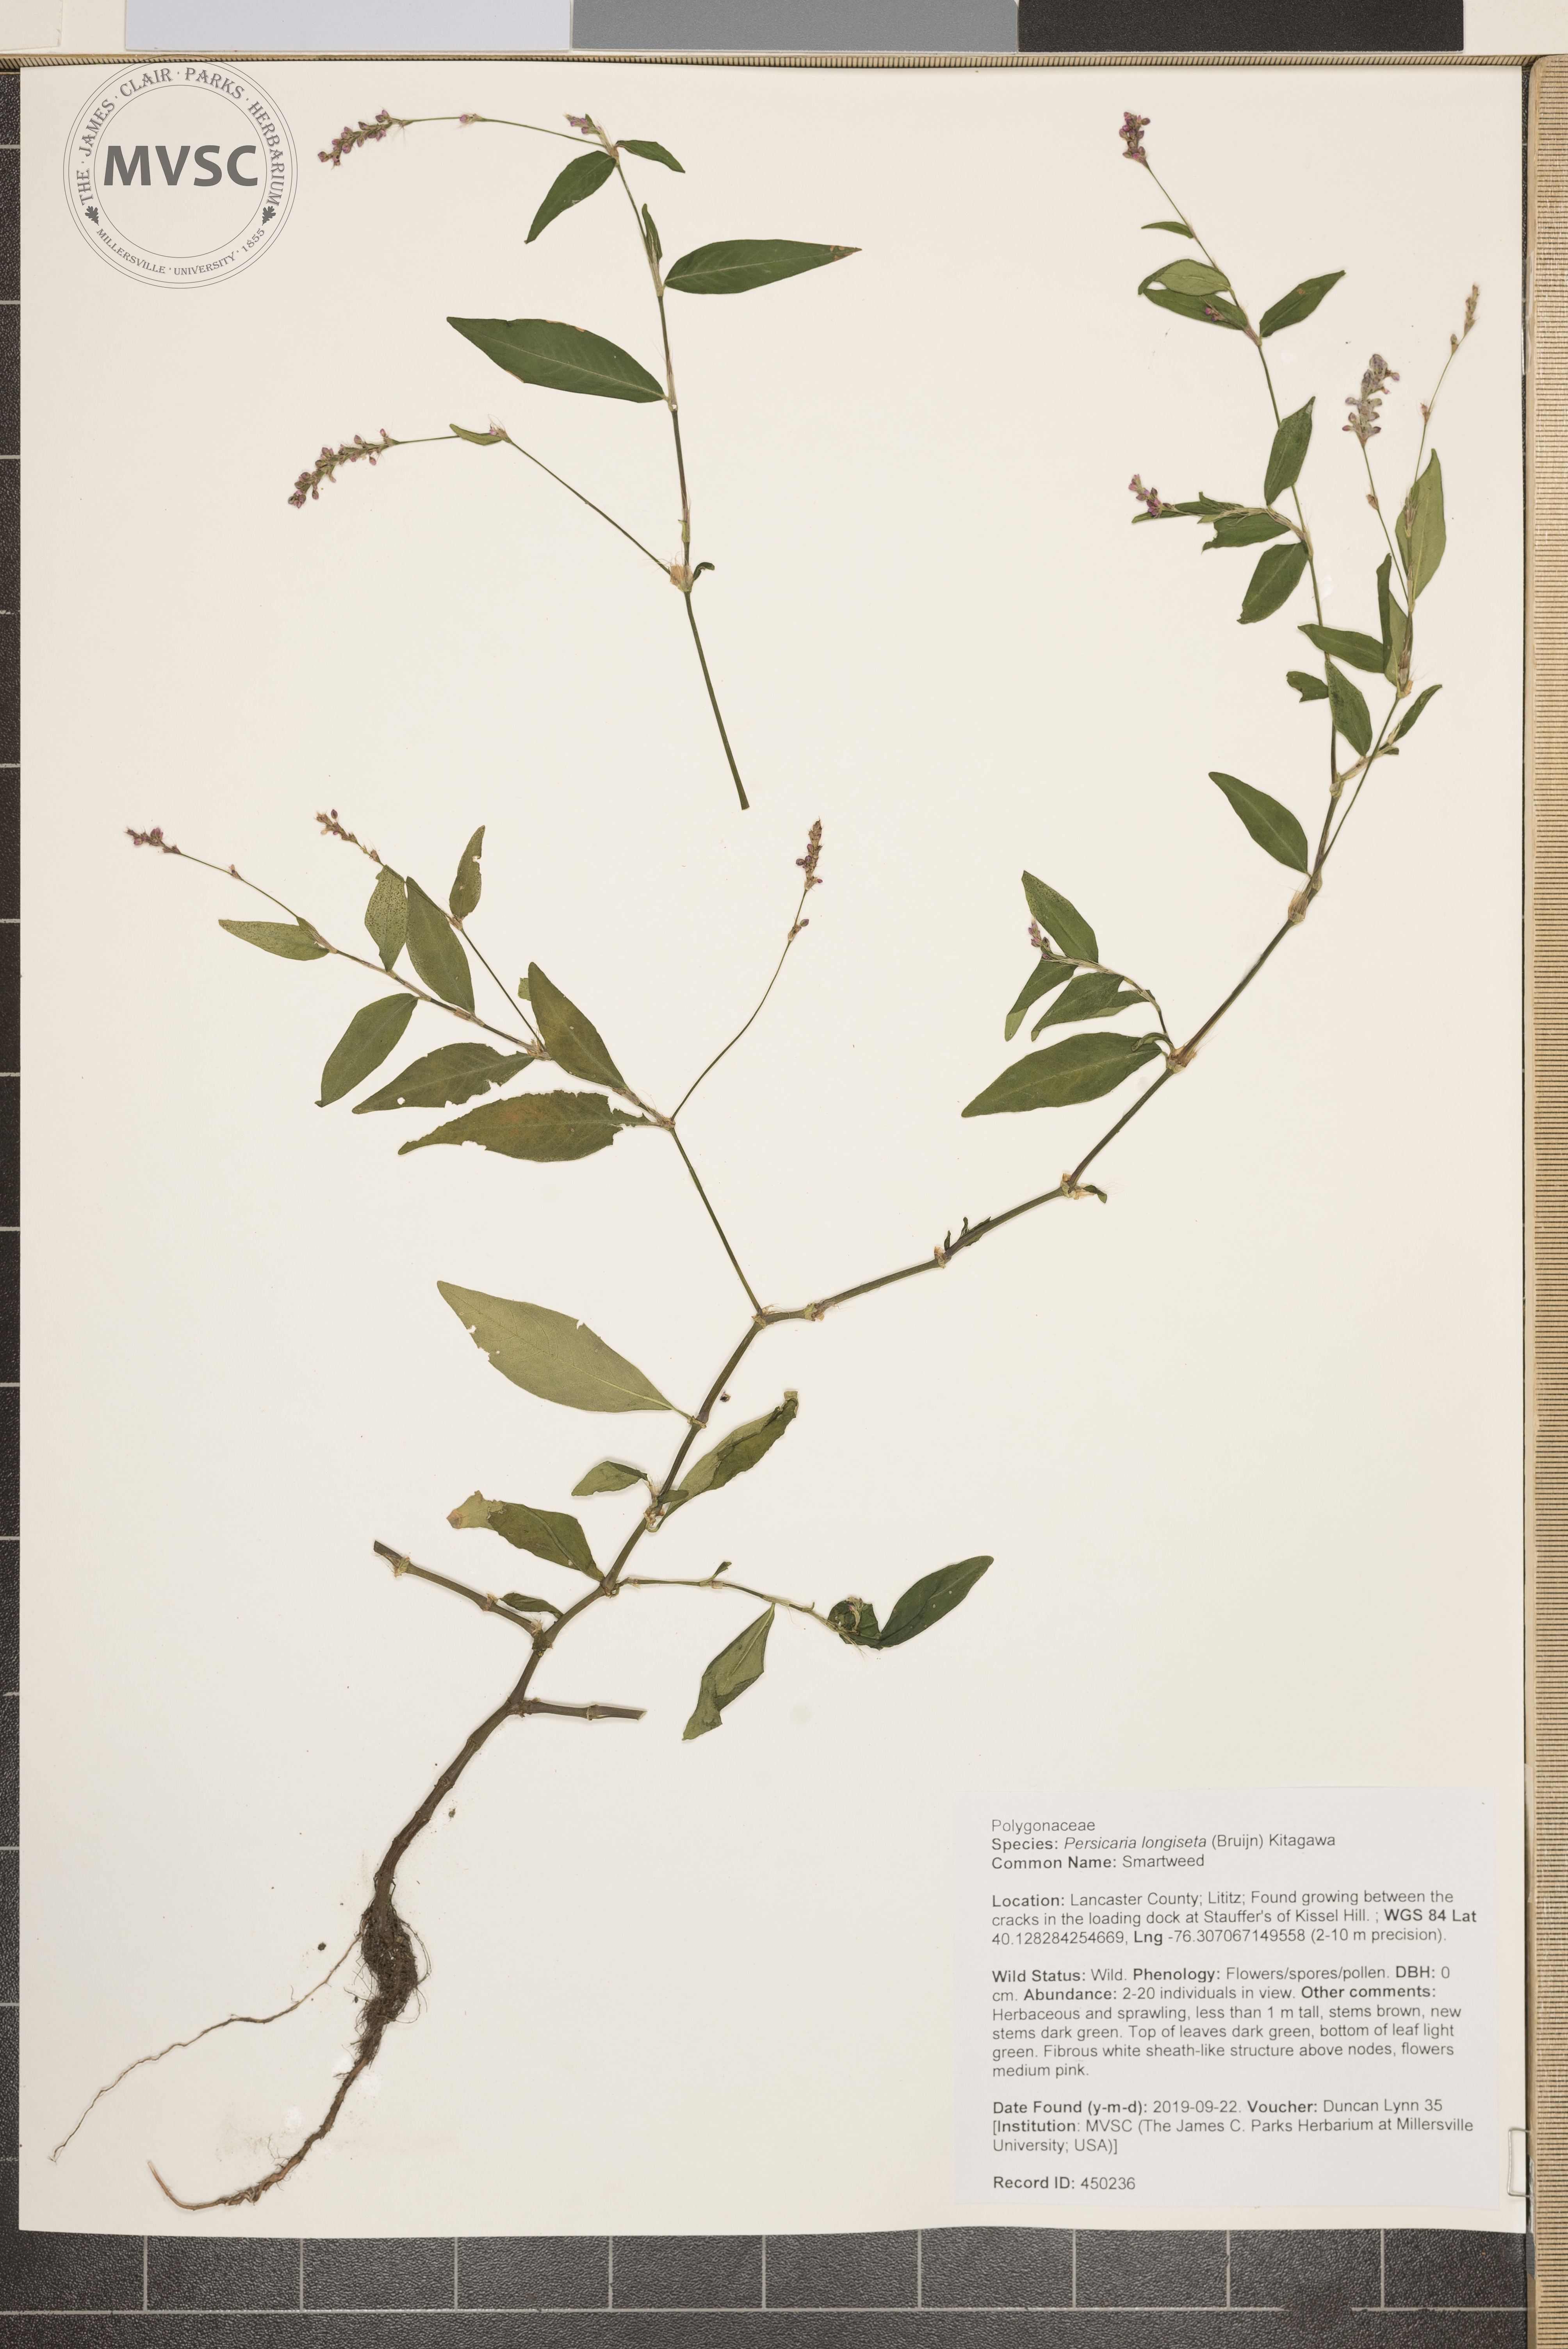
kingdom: Plantae
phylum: Tracheophyta
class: Magnoliopsida
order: Caryophyllales
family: Polygonaceae
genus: Persicaria
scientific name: Persicaria longiseta
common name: Smartweed
